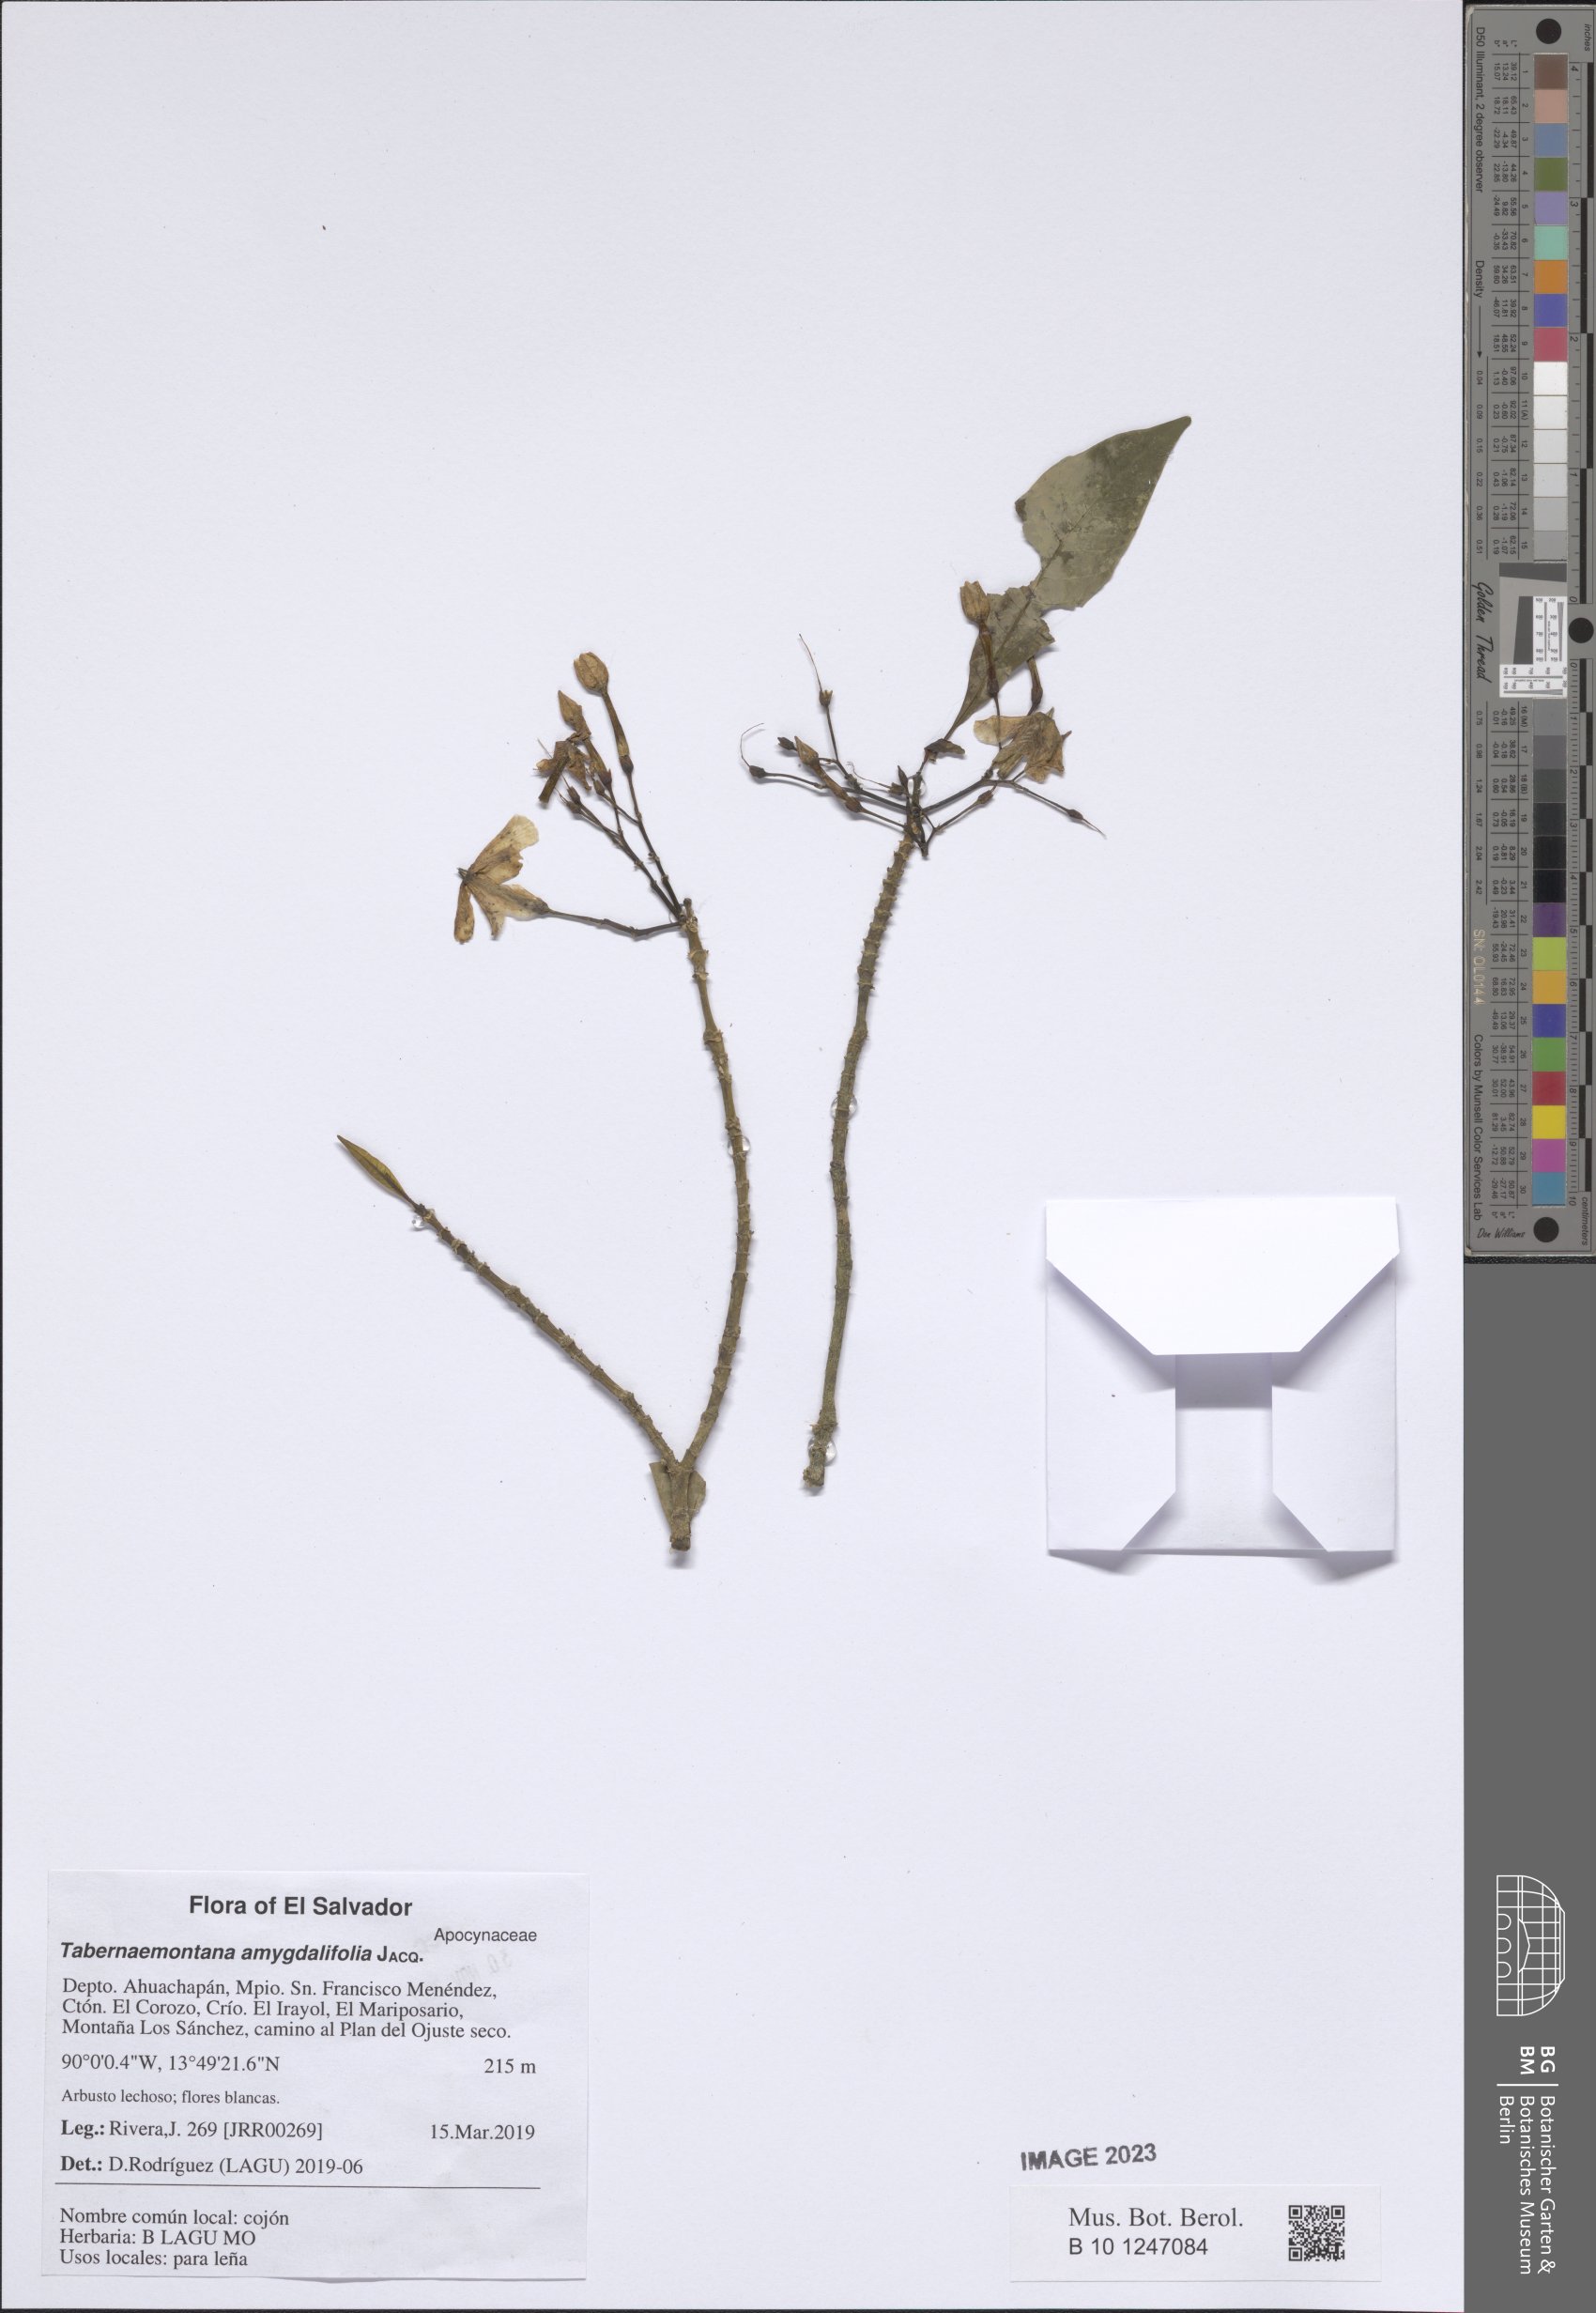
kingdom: Plantae
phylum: Tracheophyta
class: Magnoliopsida
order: Gentianales
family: Apocynaceae
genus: Tabernaemontana
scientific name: Tabernaemontana amygdalifolia
